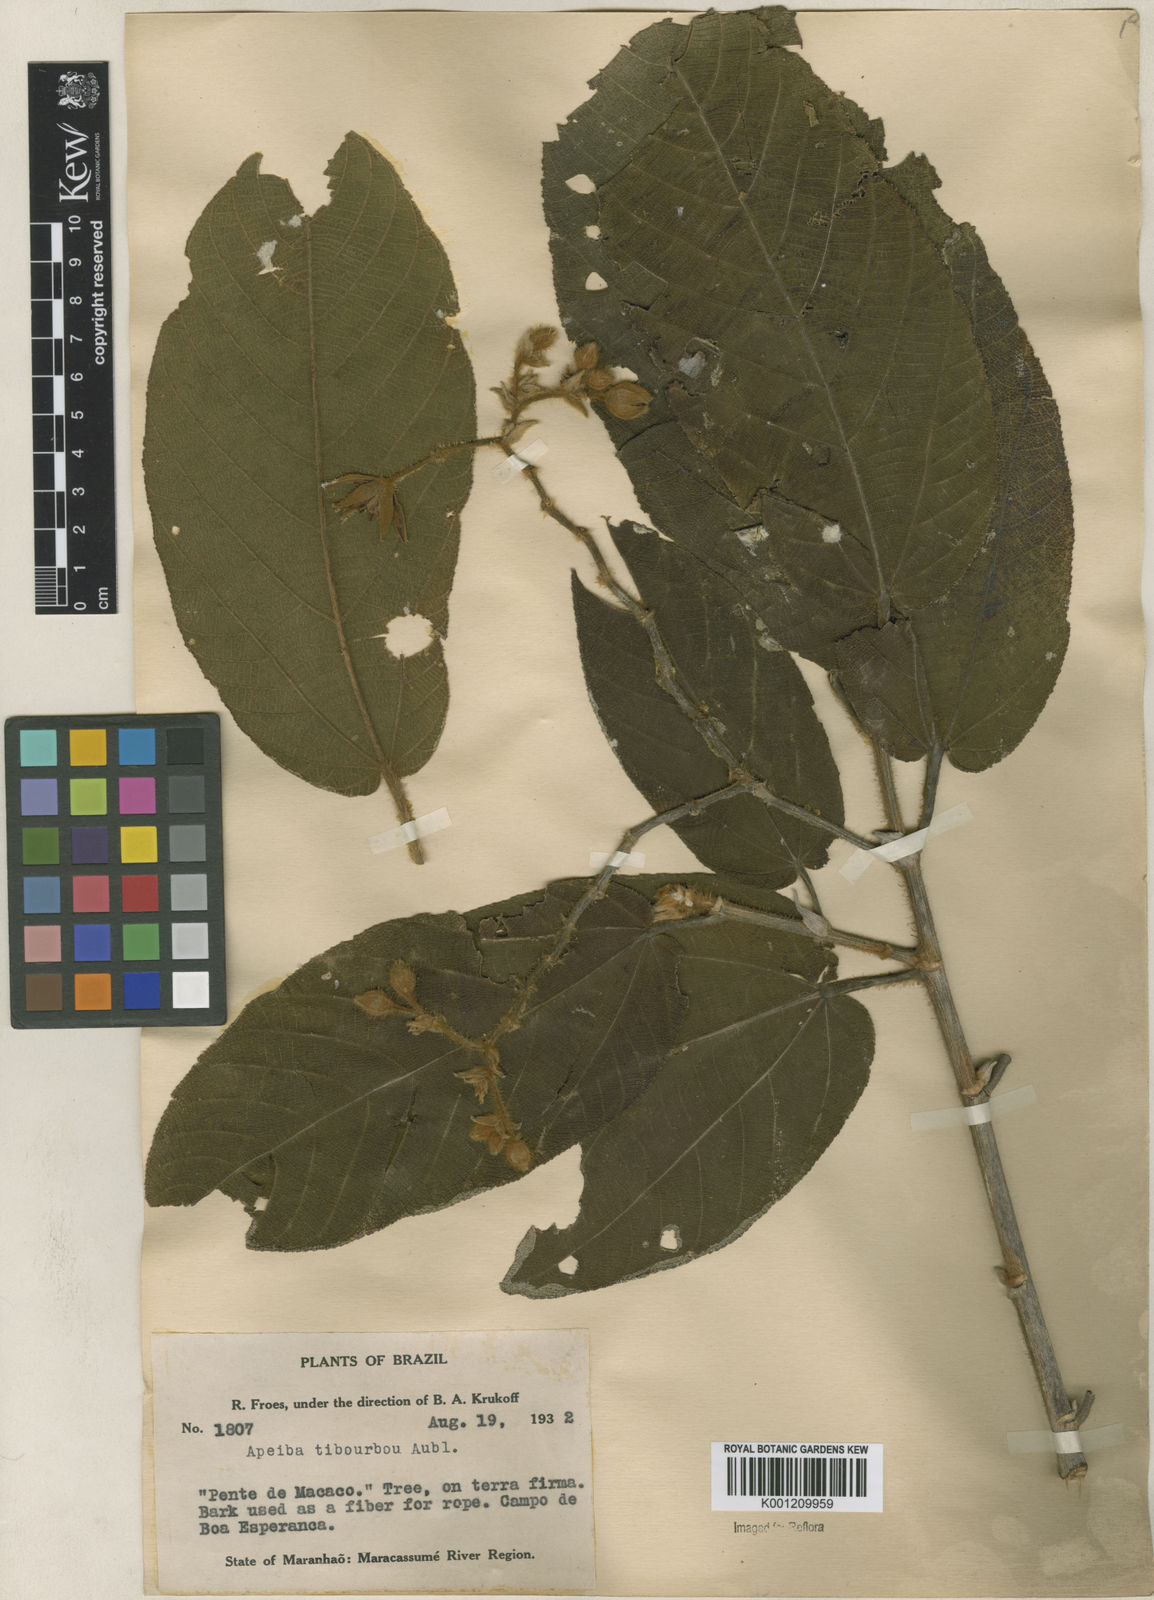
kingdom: Plantae
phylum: Tracheophyta
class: Magnoliopsida
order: Malvales
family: Malvaceae
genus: Apeiba
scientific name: Apeiba tibourbou
